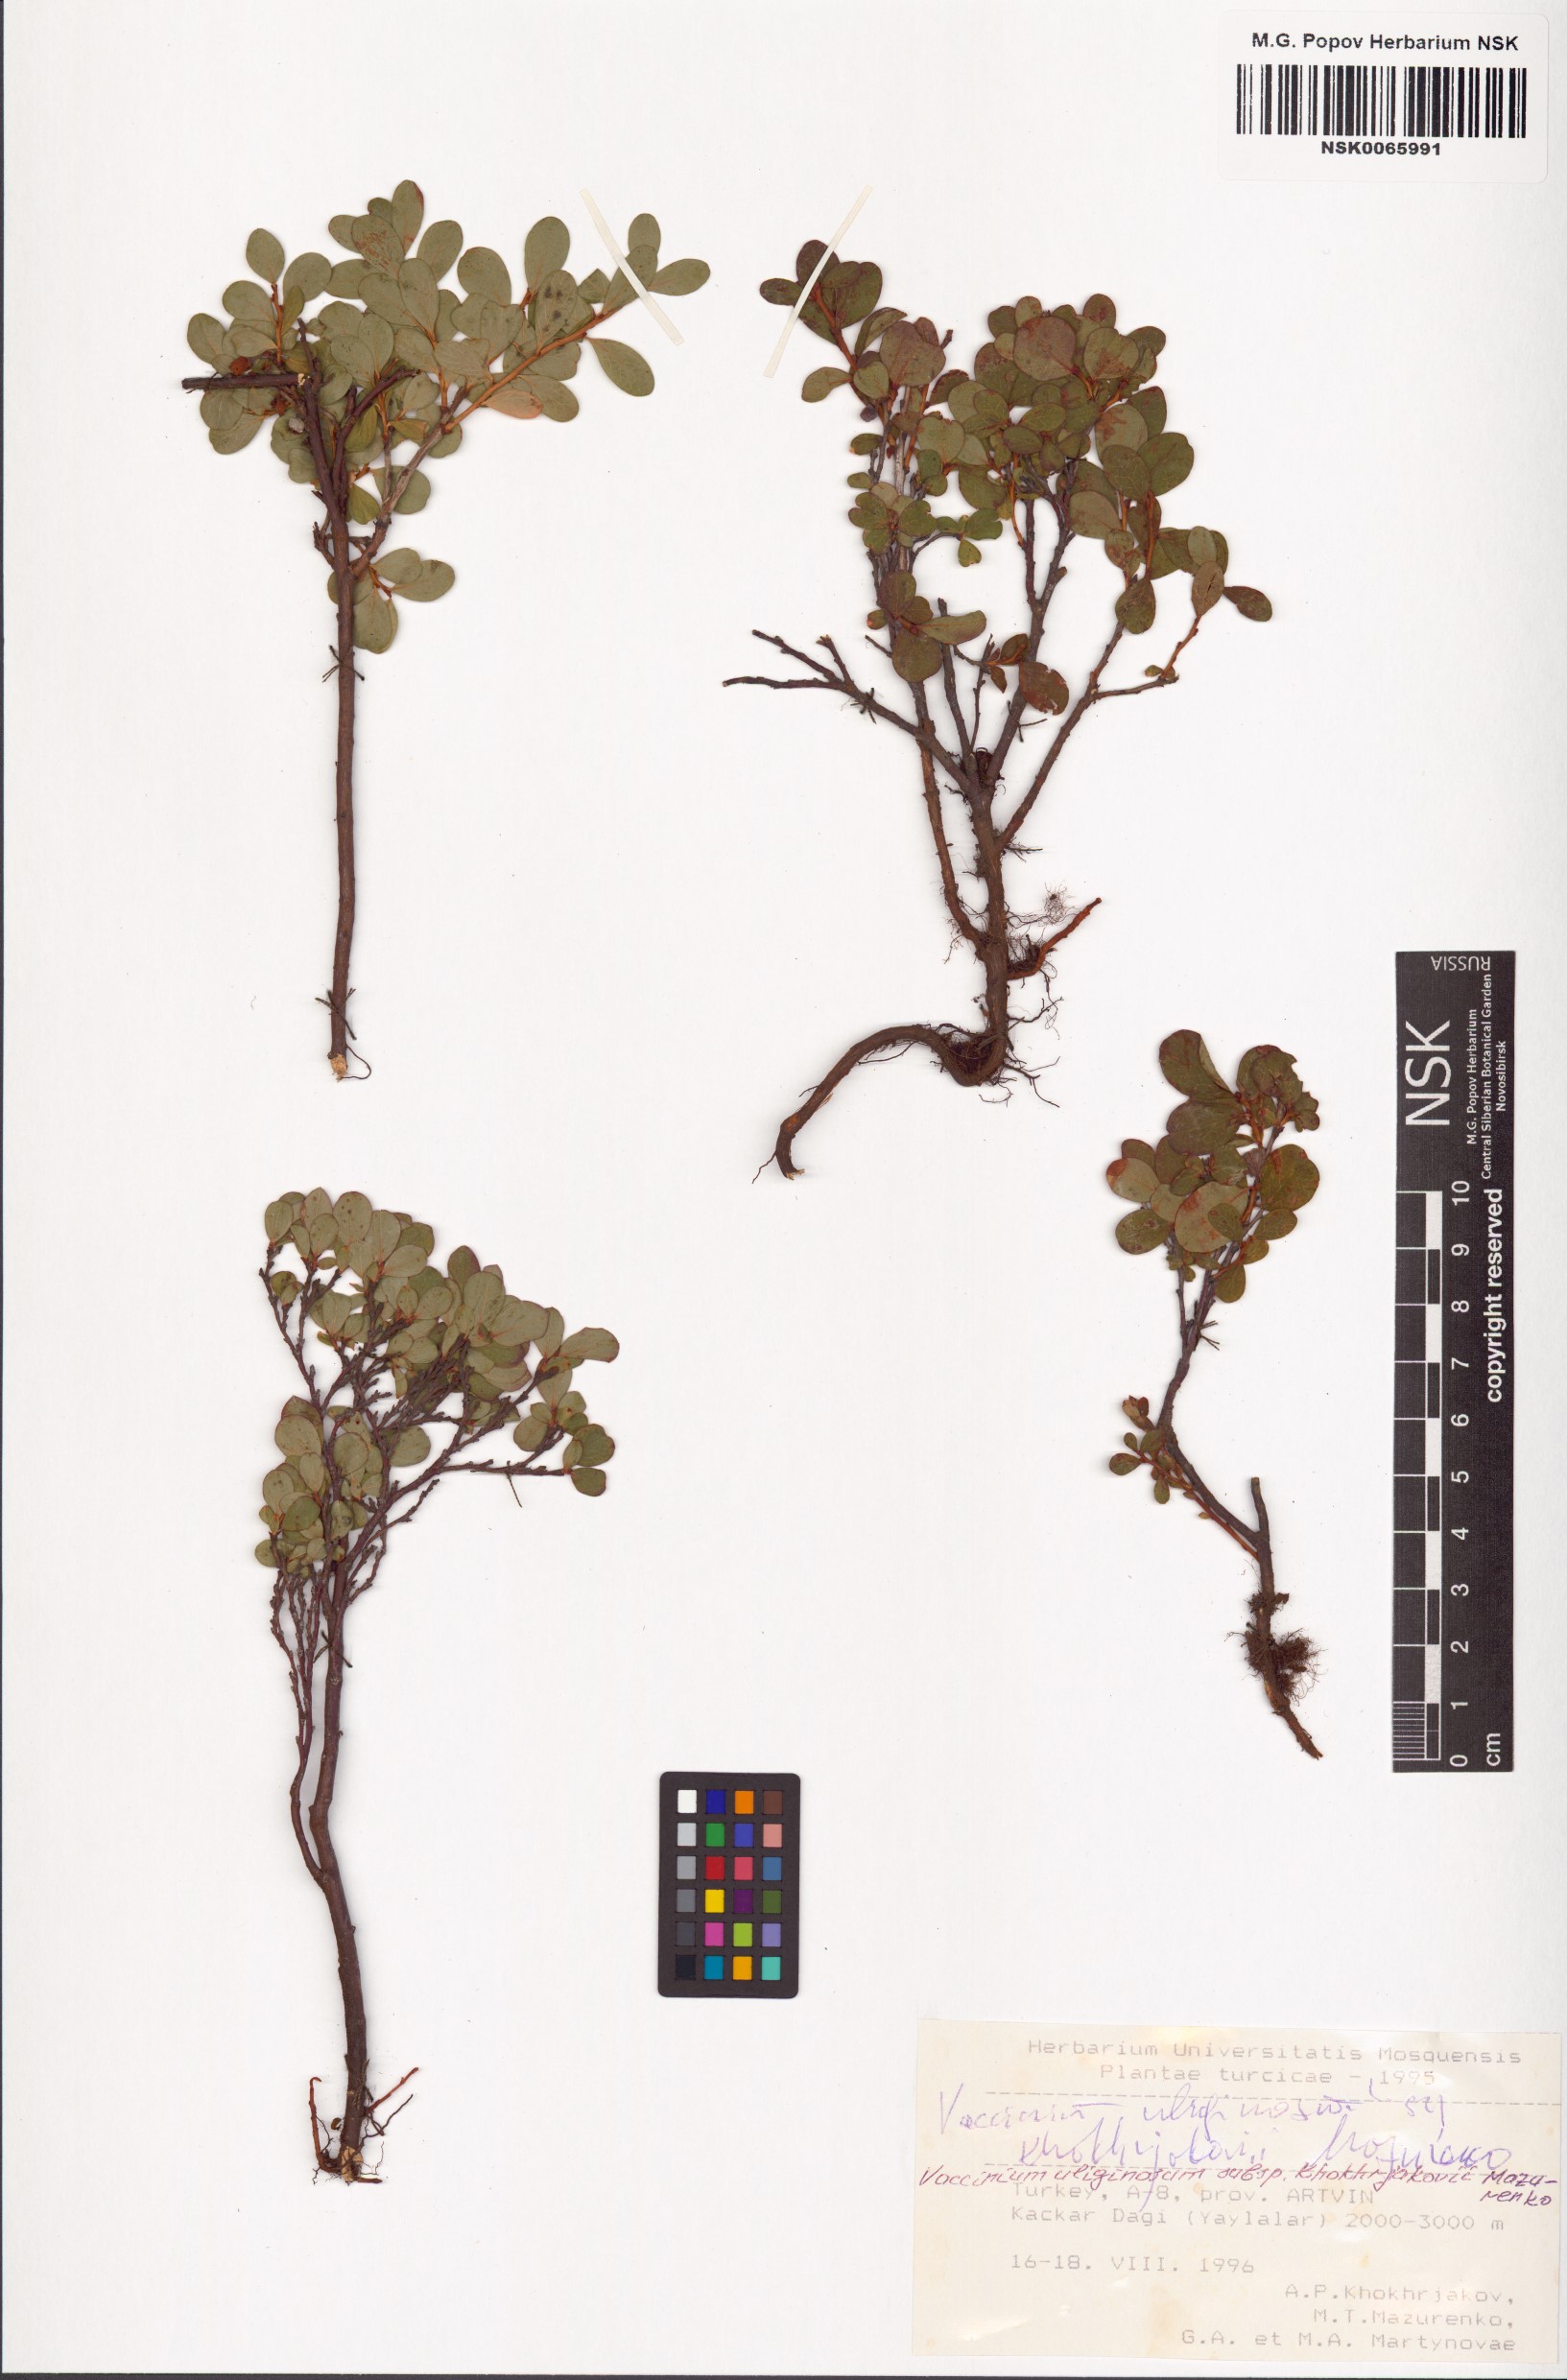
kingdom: Plantae
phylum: Tracheophyta
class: Magnoliopsida
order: Ericales
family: Ericaceae
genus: Vaccinium
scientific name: Vaccinium uliginosum
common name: Bog bilberry
